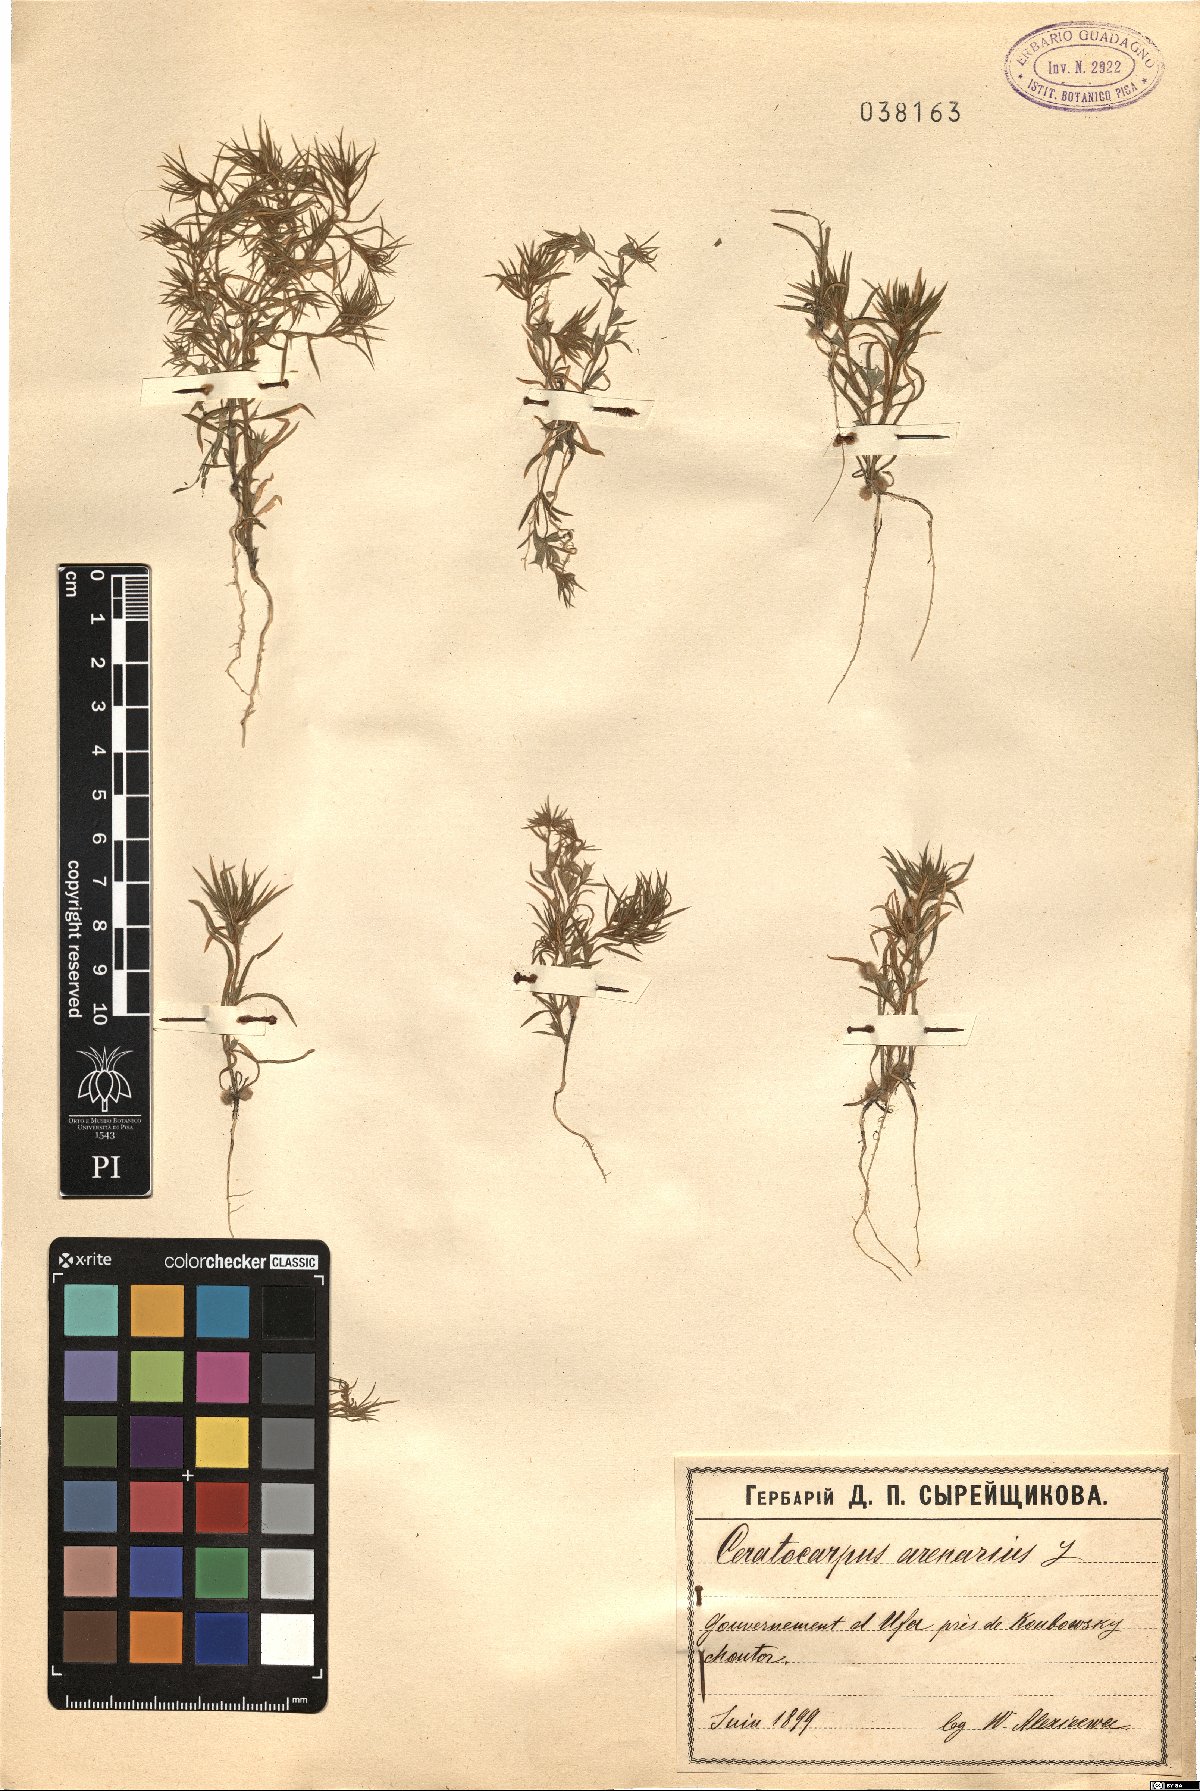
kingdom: Plantae
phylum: Tracheophyta
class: Magnoliopsida
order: Caryophyllales
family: Amaranthaceae
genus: Ceratocarpus
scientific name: Ceratocarpus arenarius
